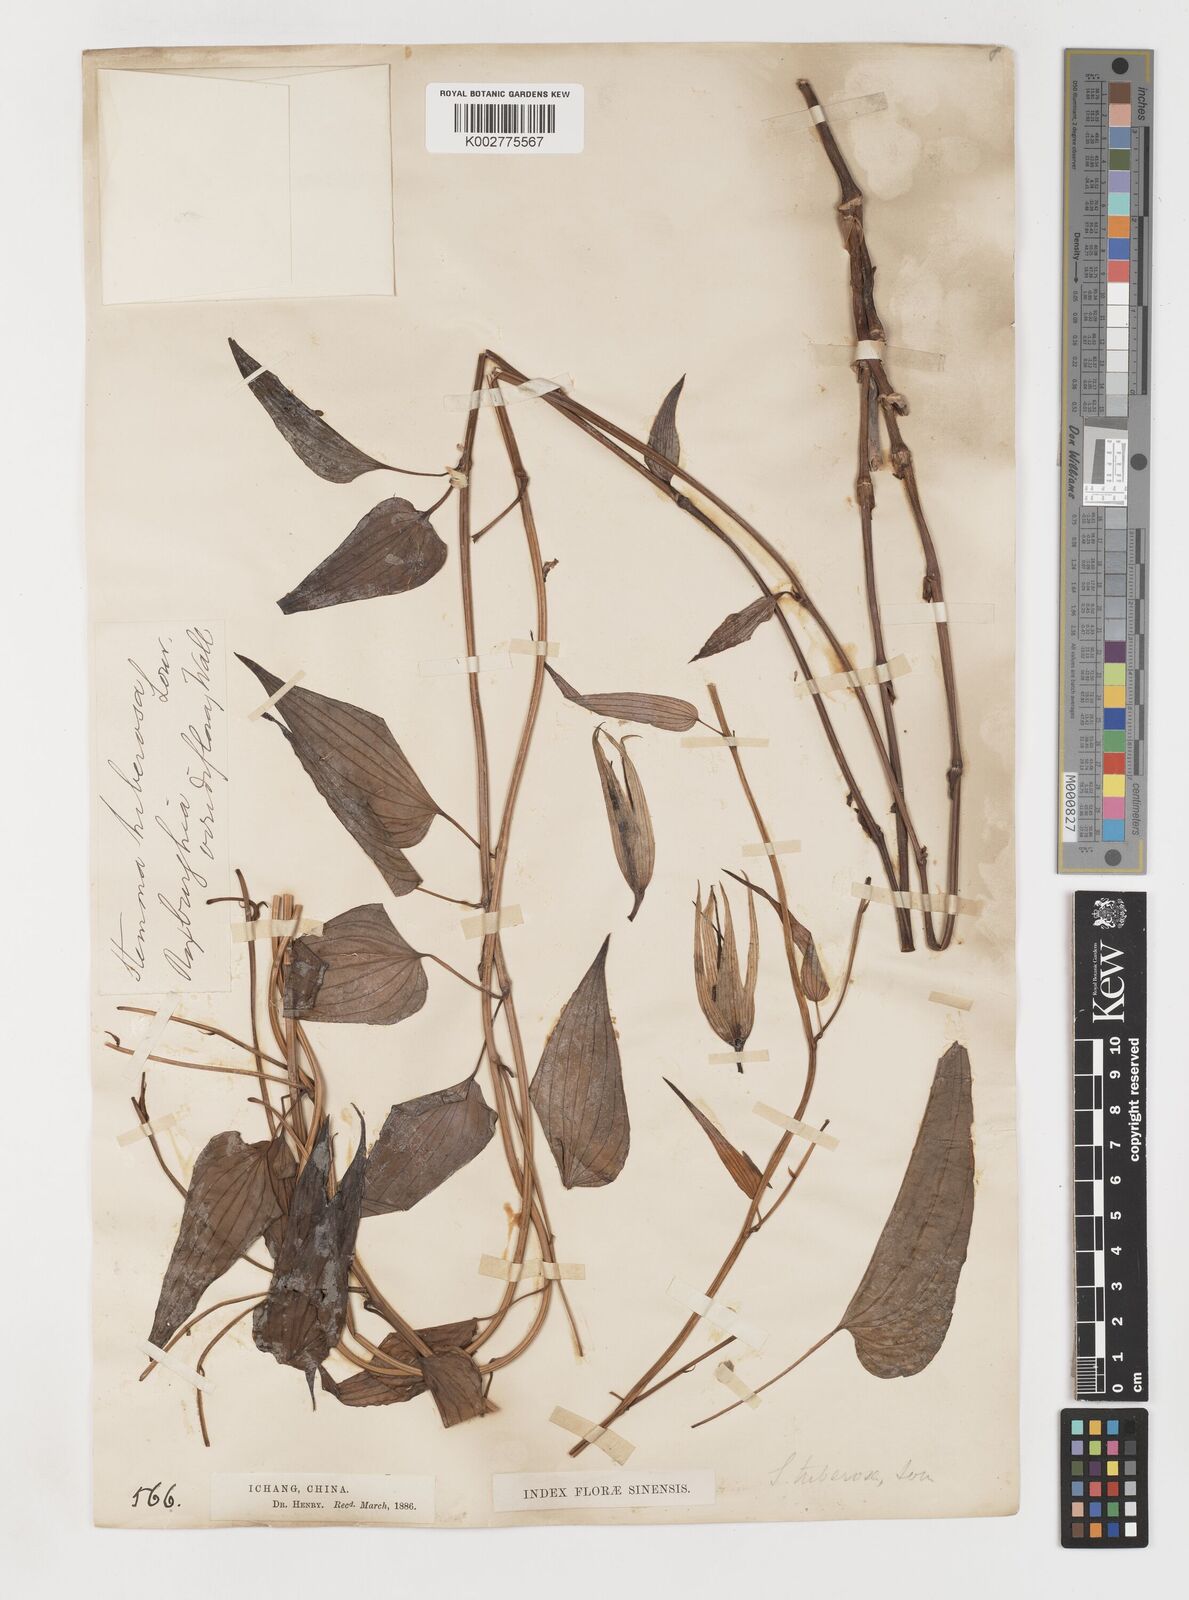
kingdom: Plantae
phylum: Tracheophyta
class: Liliopsida
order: Pandanales
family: Stemonaceae
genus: Stemona
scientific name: Stemona tuberosa
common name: Stemona
